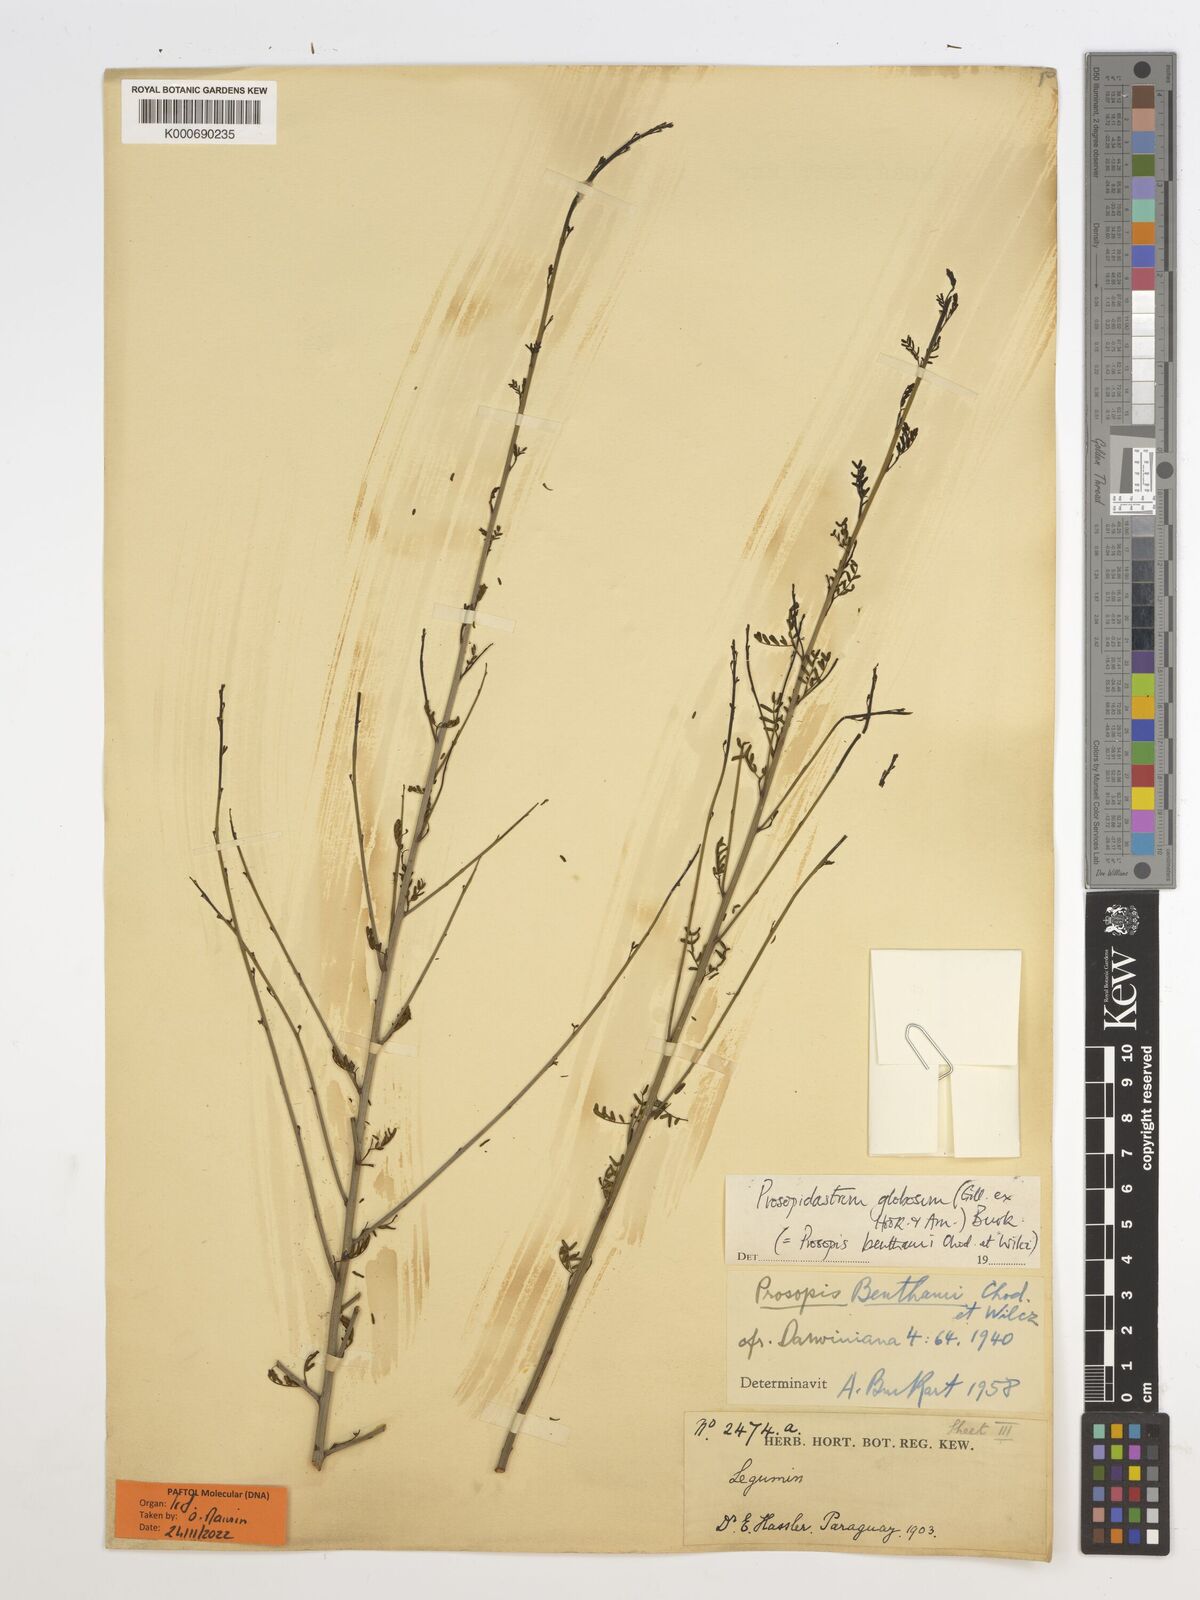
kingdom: Plantae
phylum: Tracheophyta
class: Magnoliopsida
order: Fabales
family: Fabaceae
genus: Prosopidastrum
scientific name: Prosopidastrum globosum
